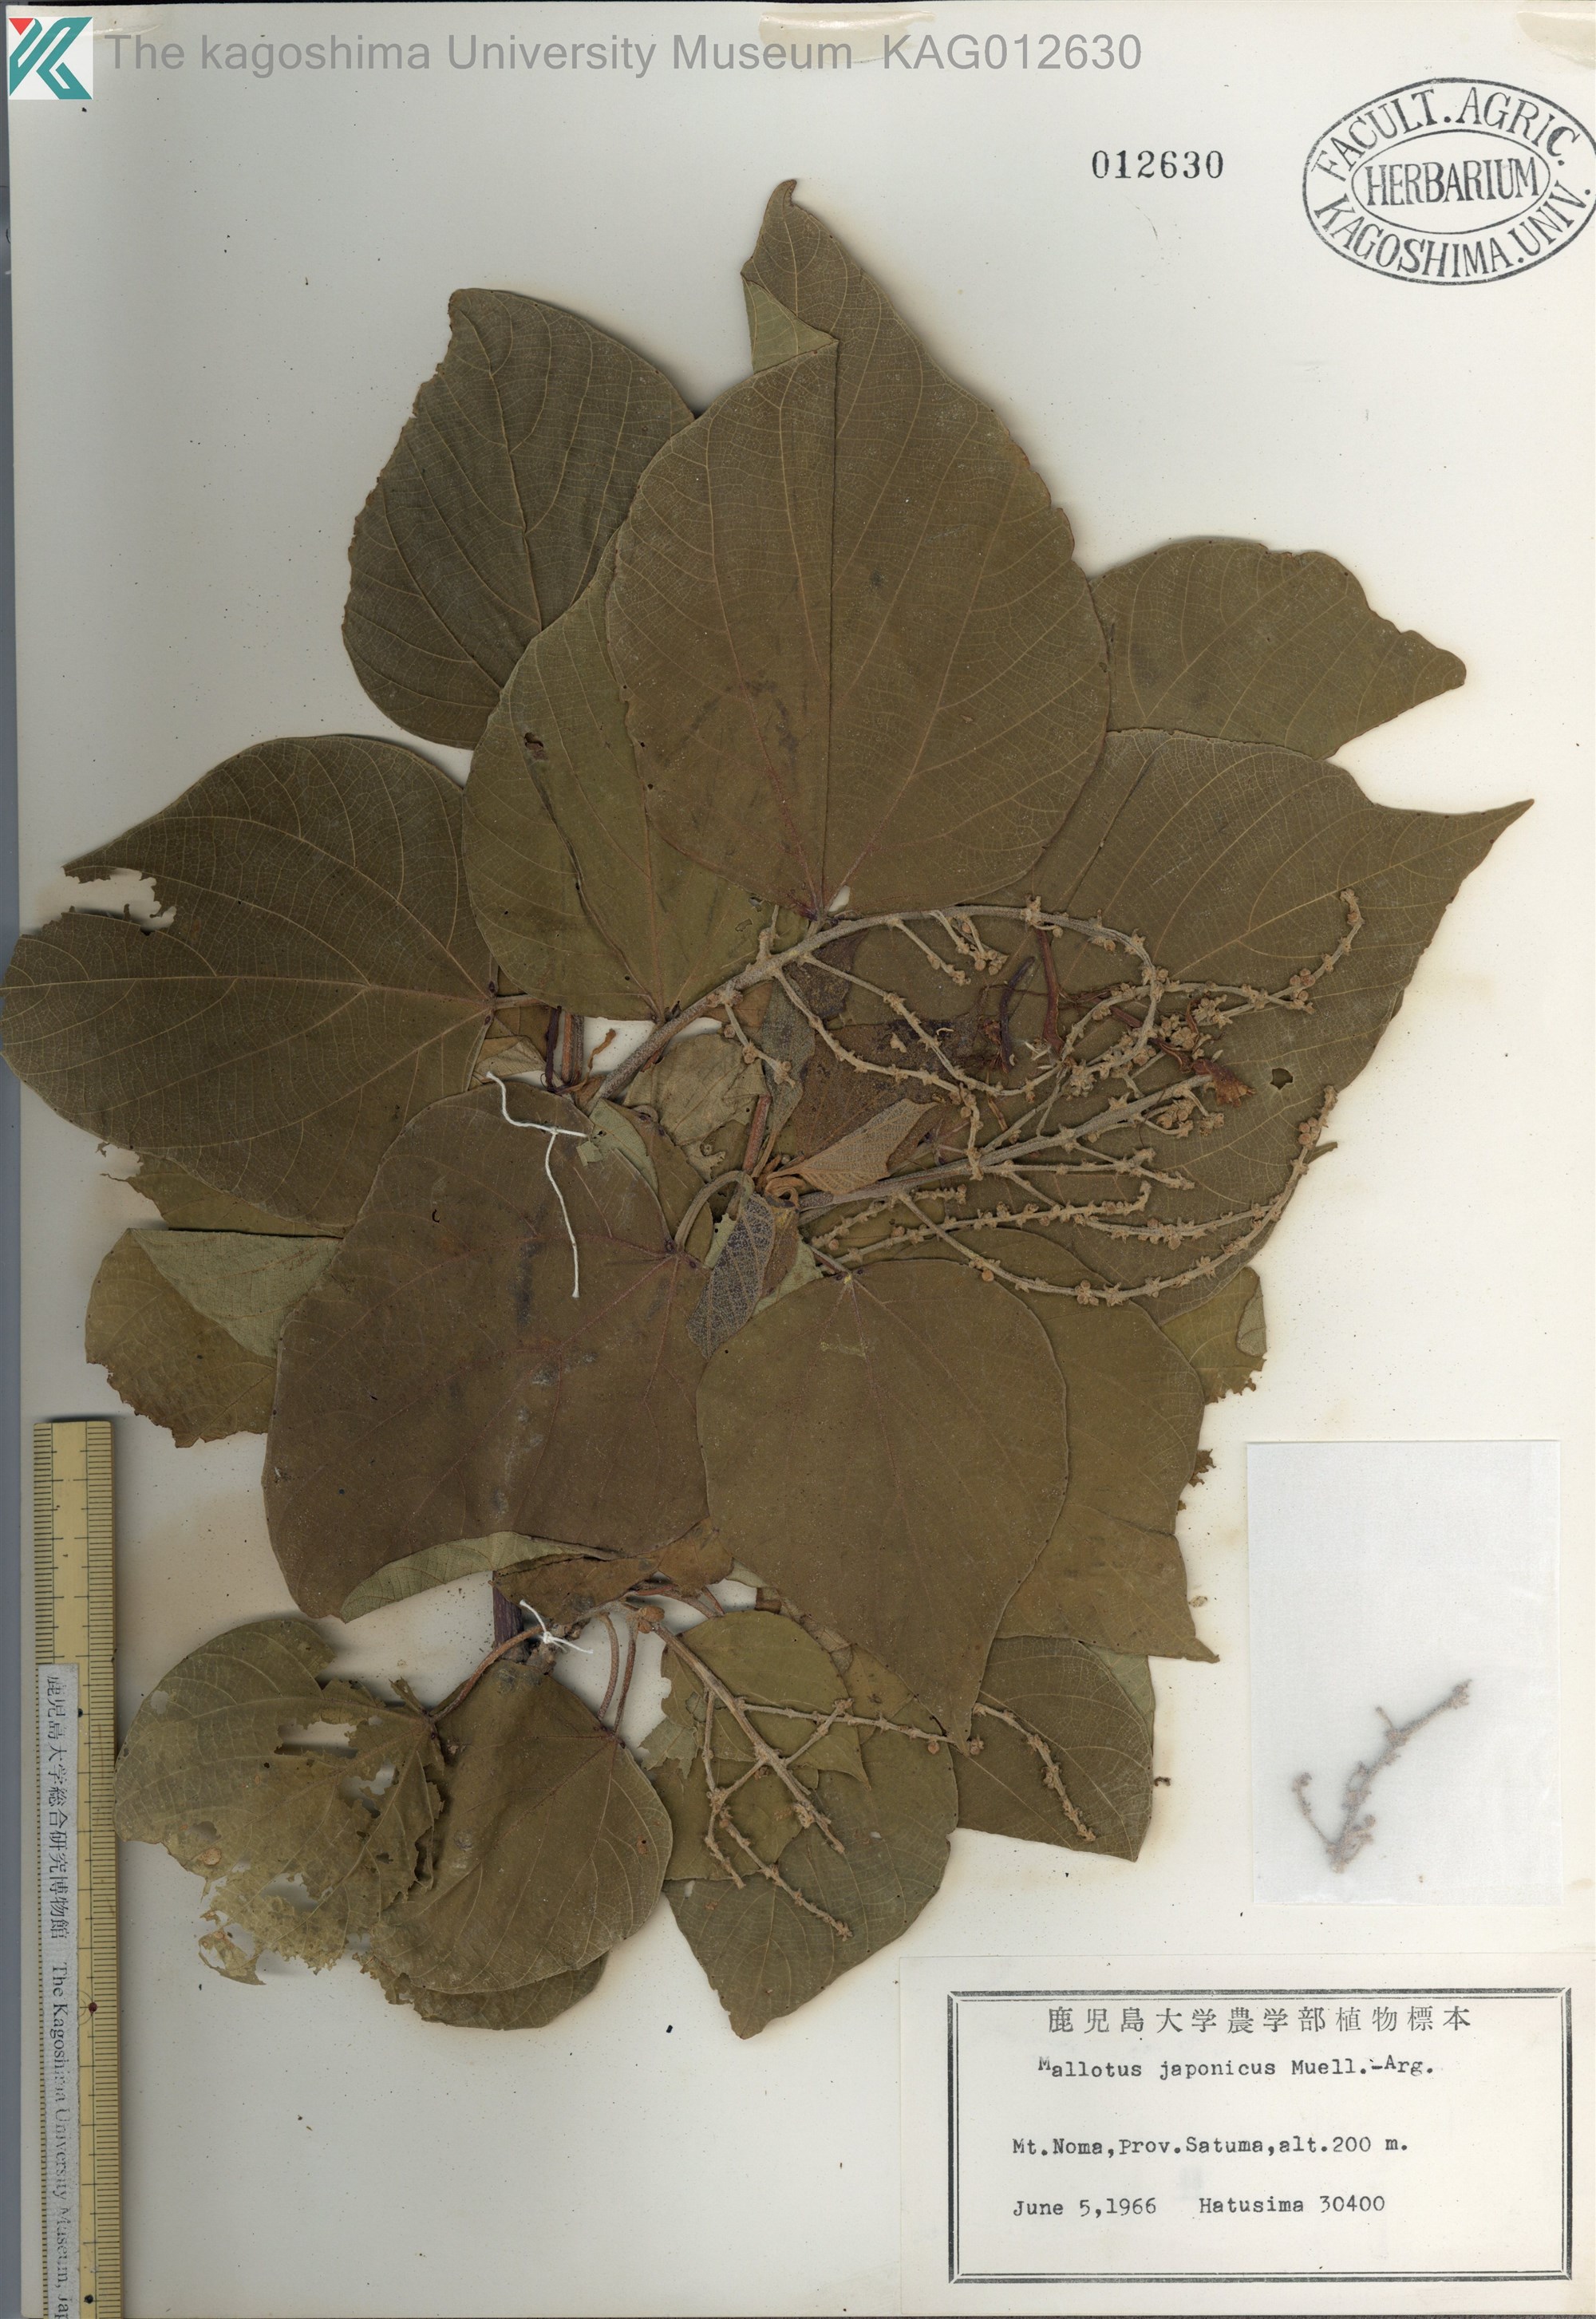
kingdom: Plantae
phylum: Tracheophyta
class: Magnoliopsida
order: Malpighiales
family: Euphorbiaceae
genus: Mallotus
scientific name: Mallotus japonicus
